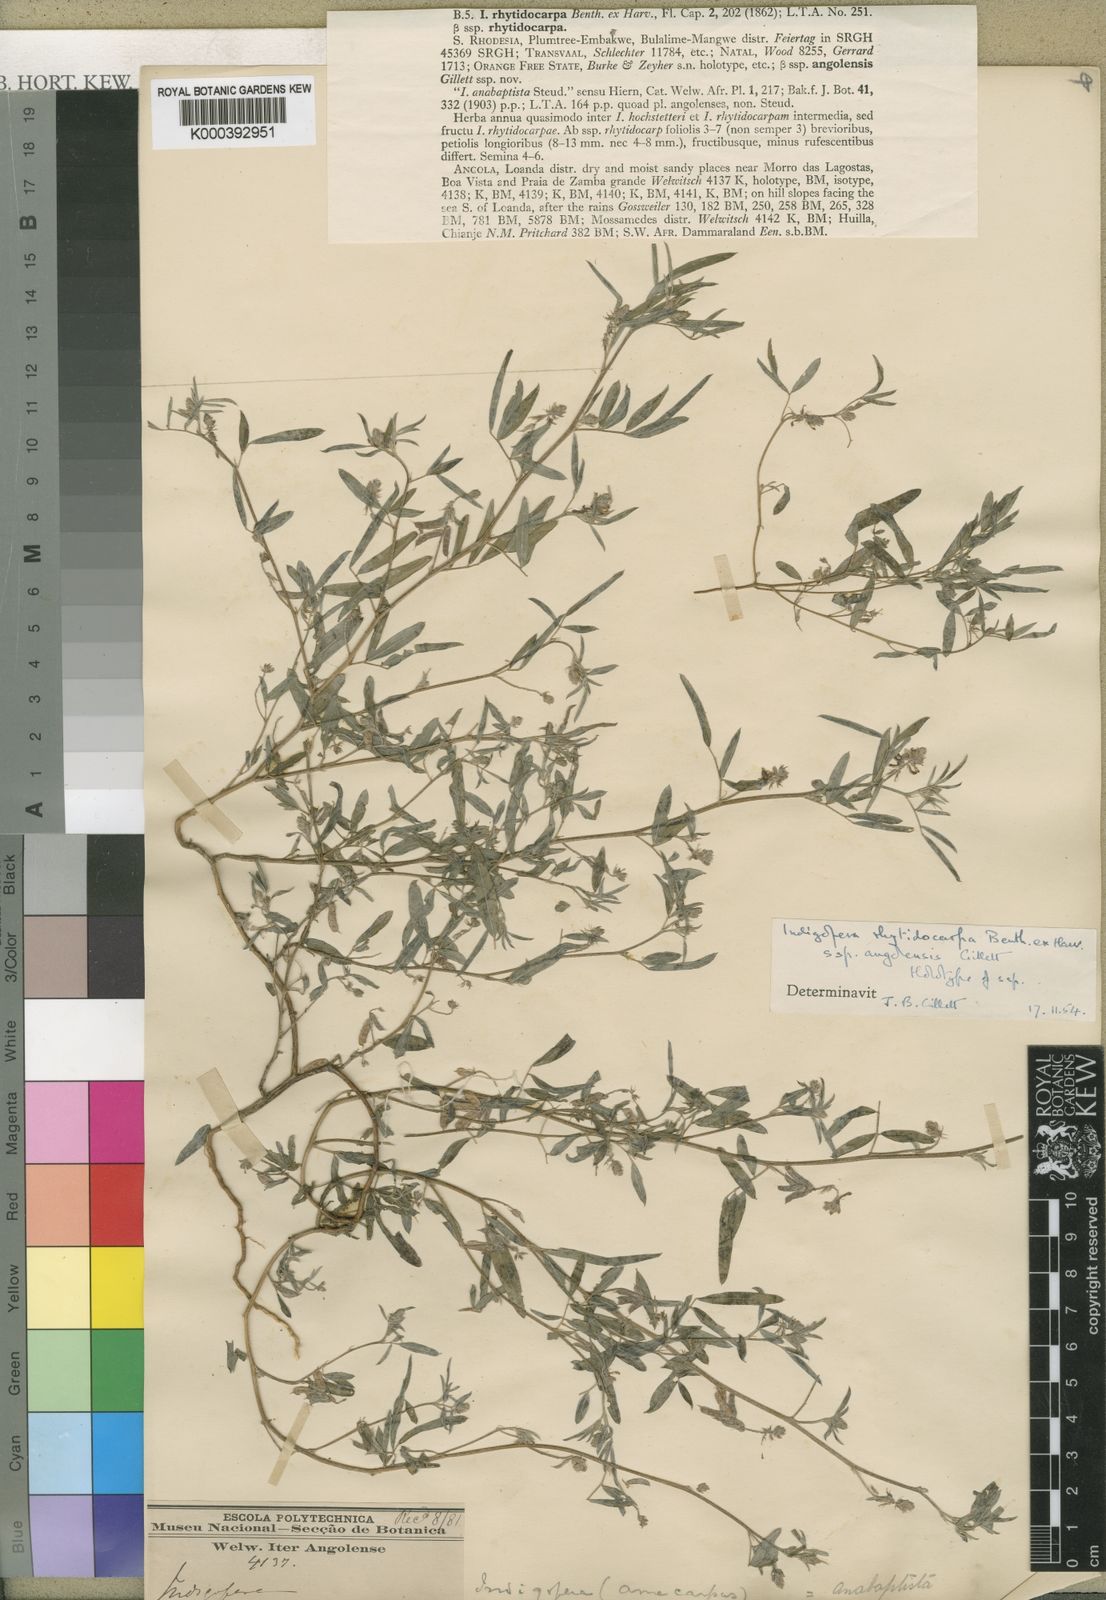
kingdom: Plantae
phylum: Tracheophyta
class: Magnoliopsida
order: Fabales
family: Fabaceae
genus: Indigofera
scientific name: Indigofera rhytidocarpa
